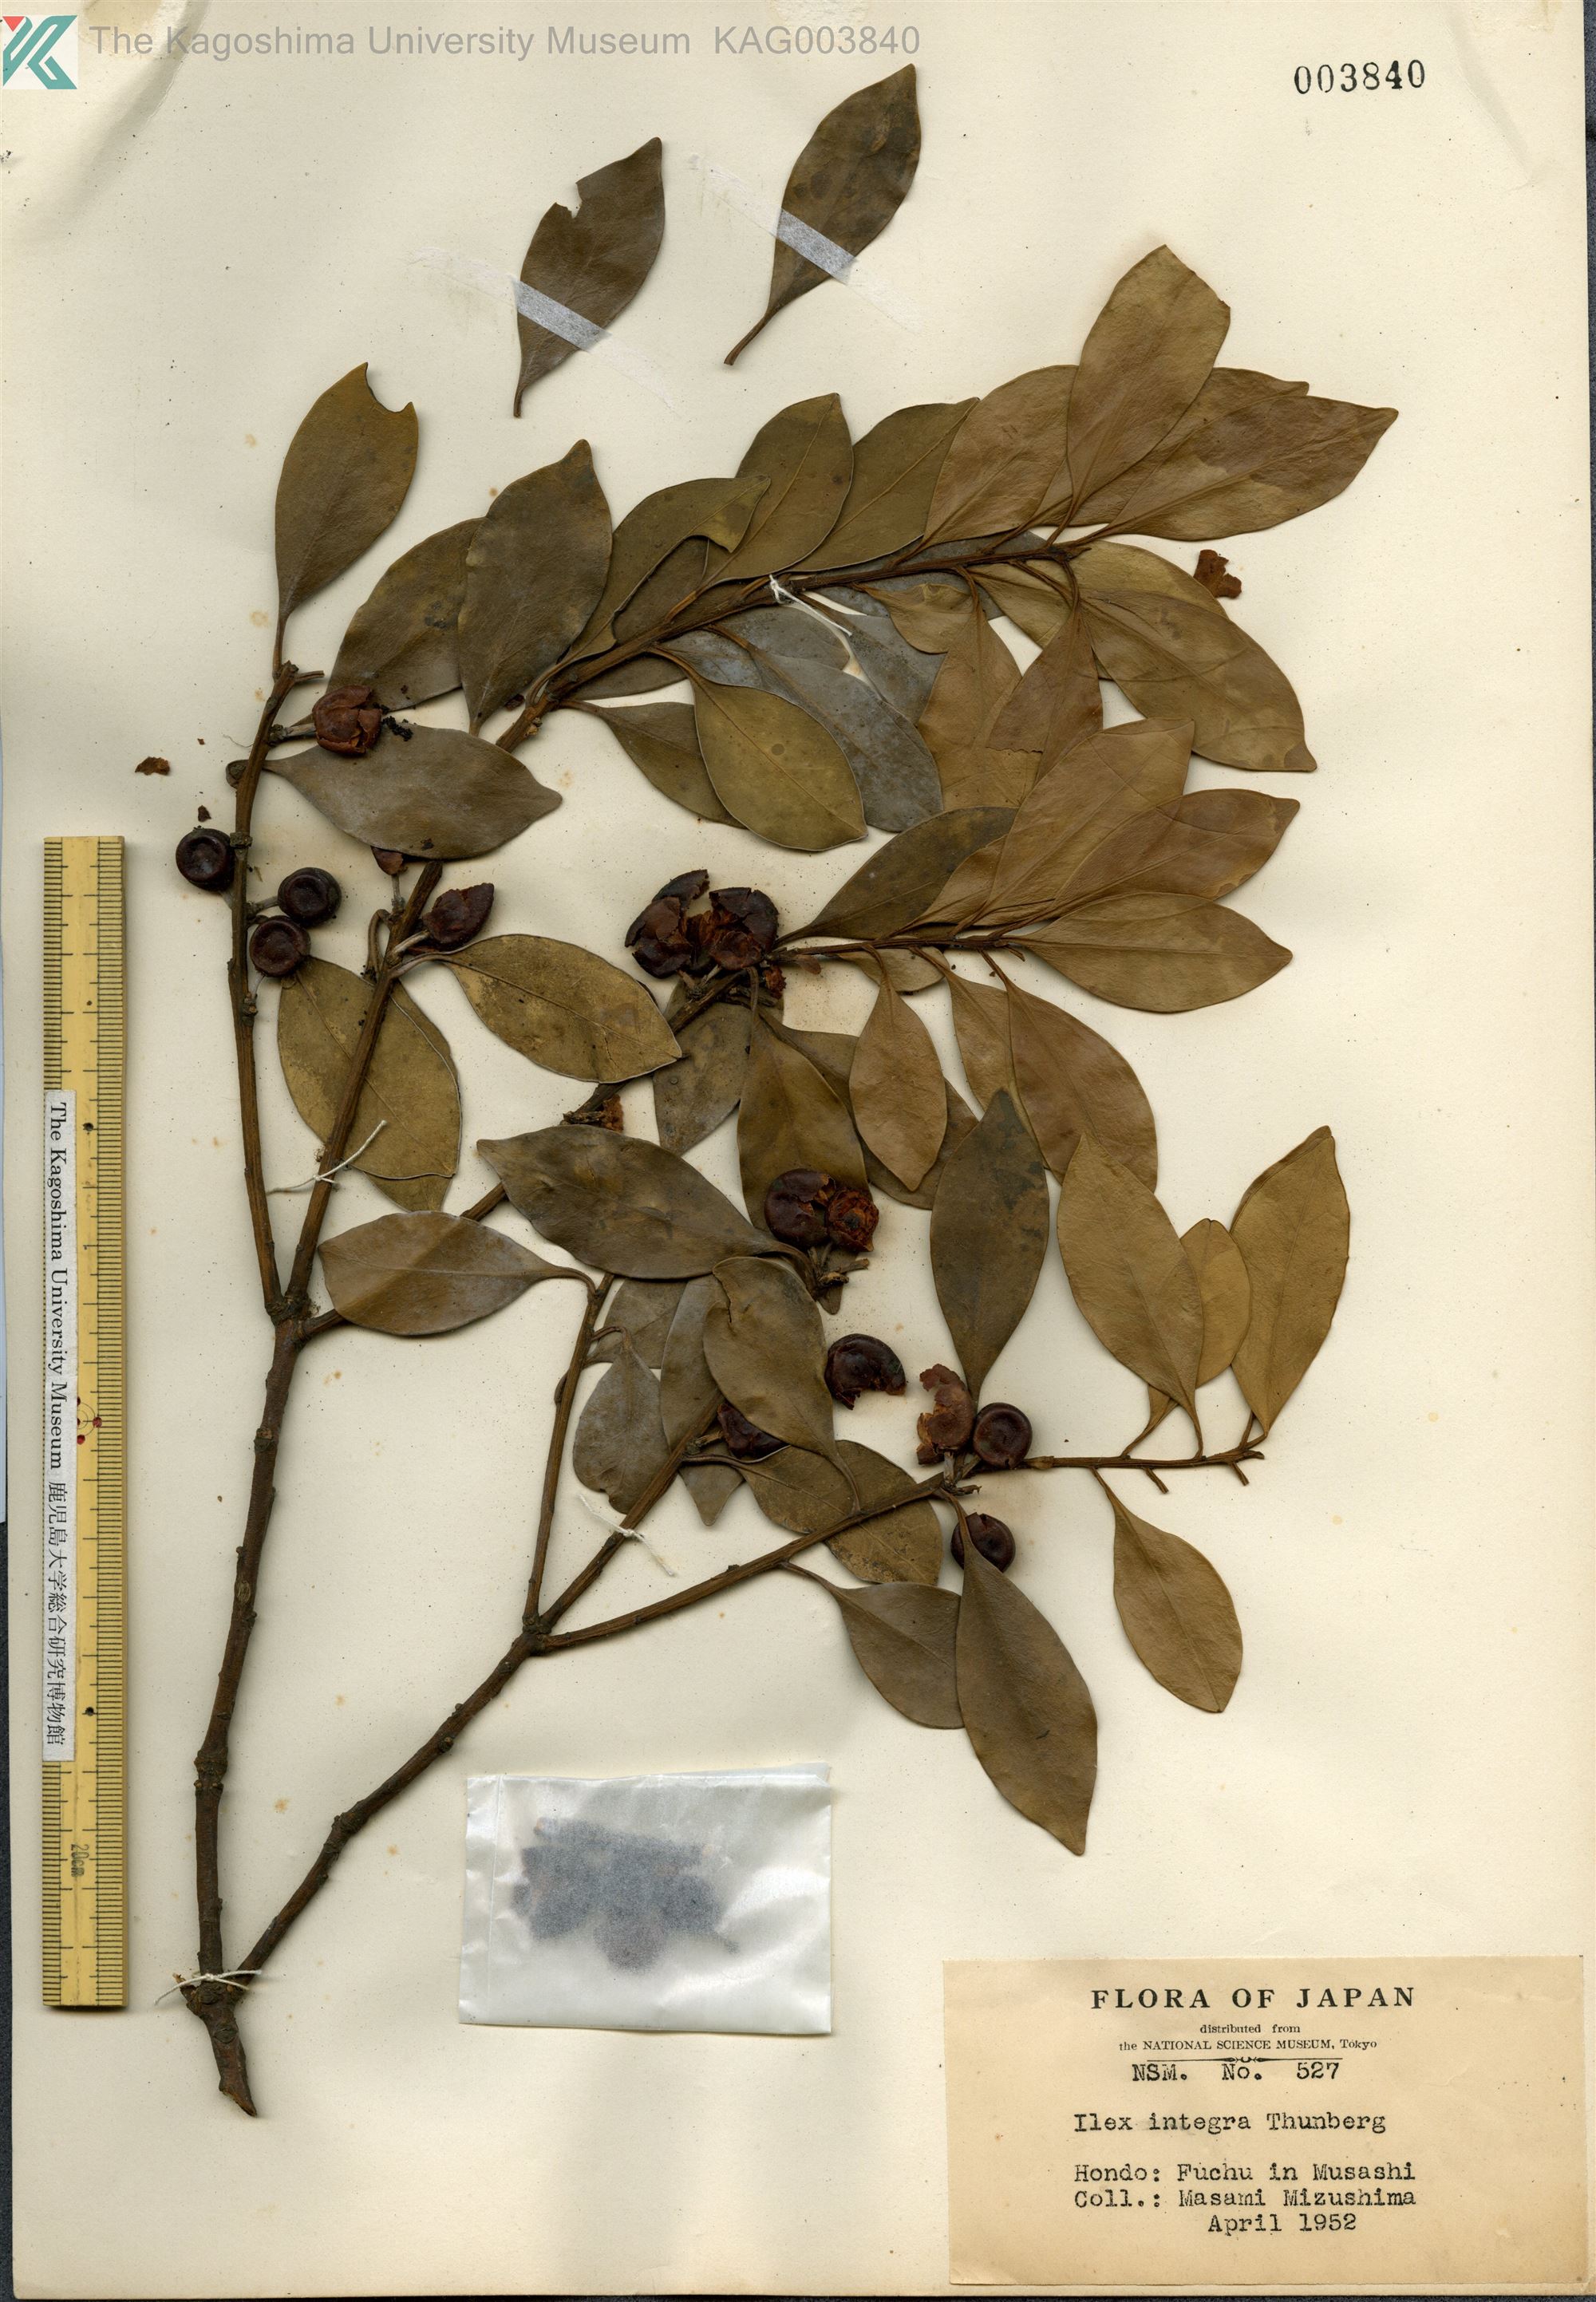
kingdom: Plantae
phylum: Tracheophyta
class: Magnoliopsida
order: Aquifoliales
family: Aquifoliaceae
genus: Ilex
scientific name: Ilex integra
